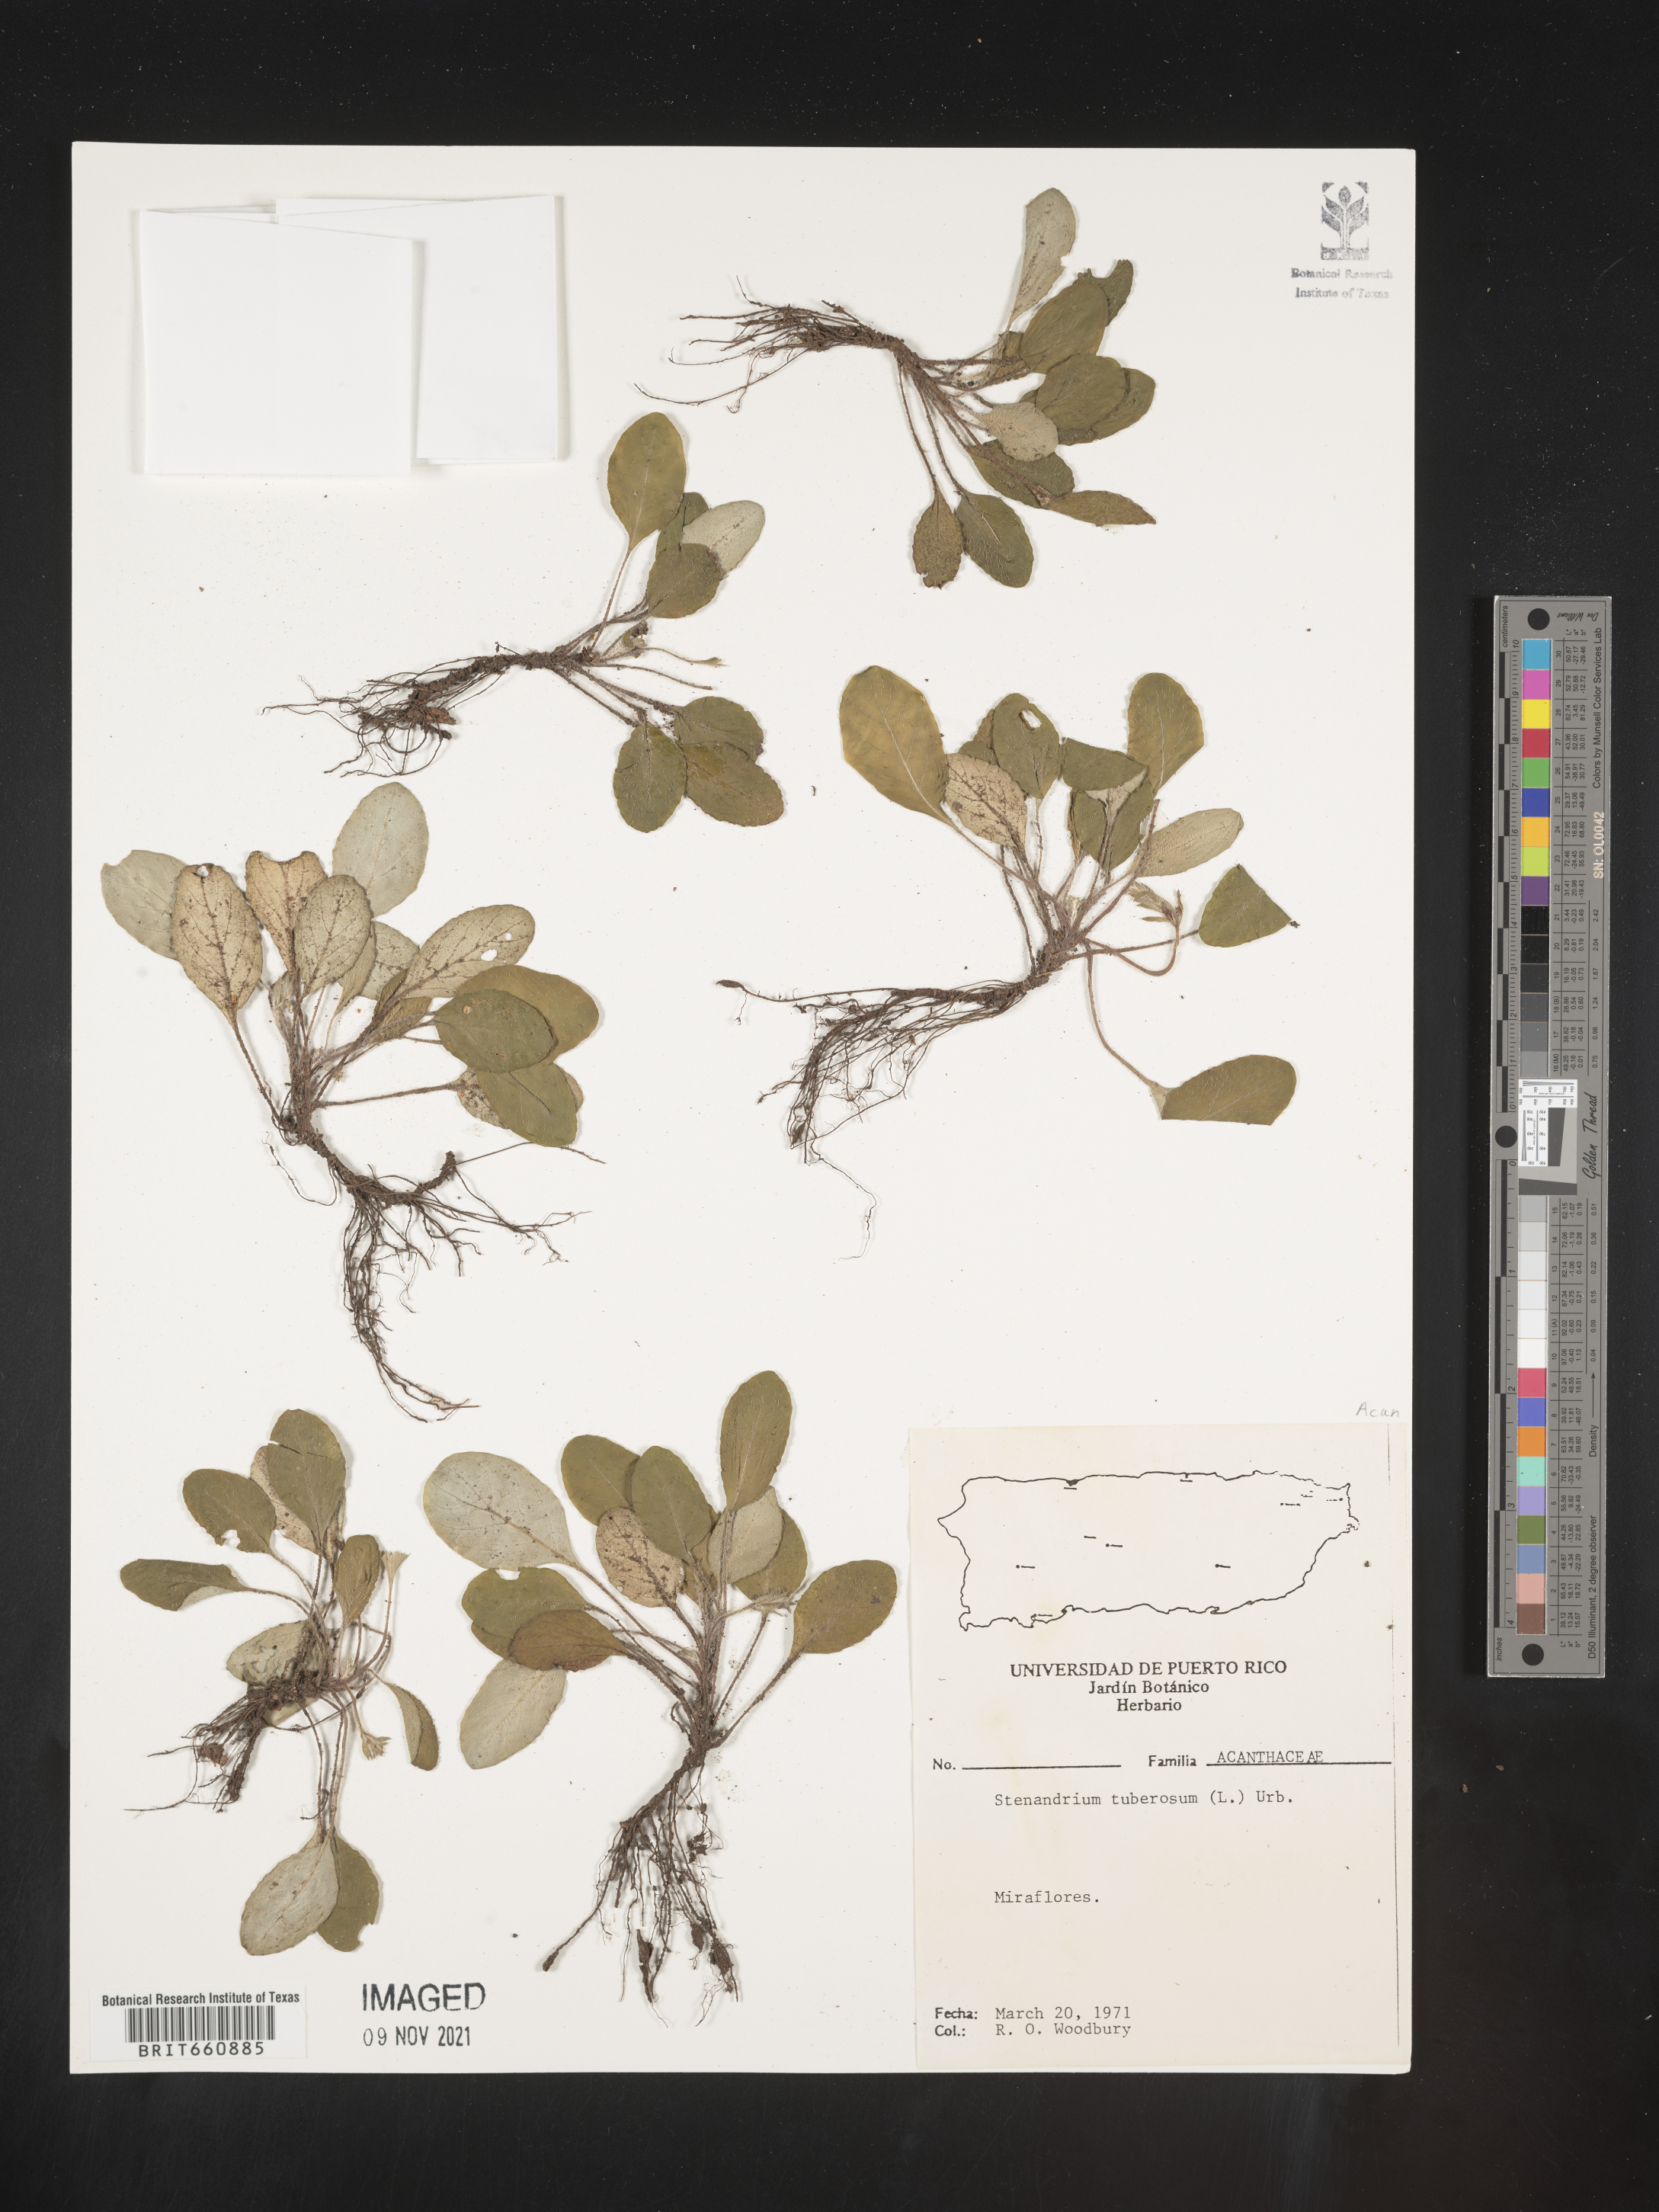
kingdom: Plantae
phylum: Tracheophyta
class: Magnoliopsida
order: Lamiales
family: Acanthaceae
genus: Stenandrium
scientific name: Stenandrium
